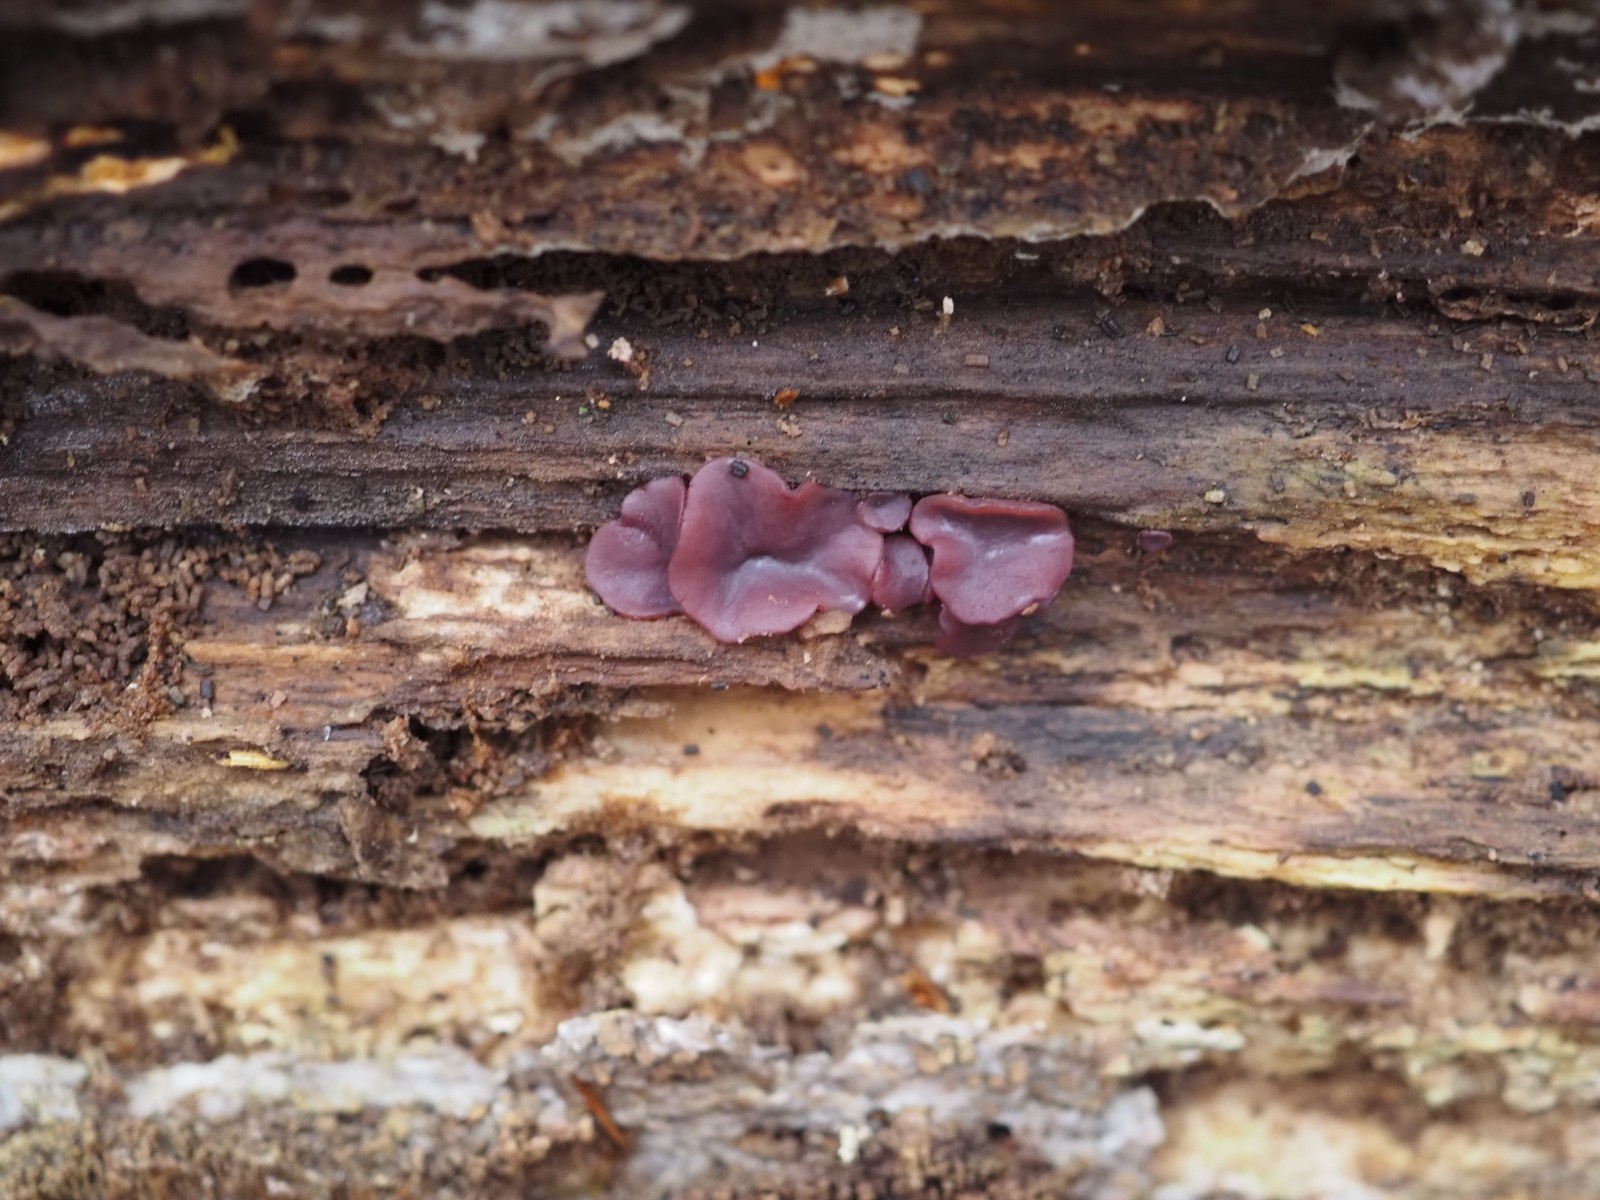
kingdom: Fungi
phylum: Ascomycota
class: Leotiomycetes
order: Helotiales
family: Gelatinodiscaceae
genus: Ascocoryne
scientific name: Ascocoryne cylichnium
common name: stor sejskive
